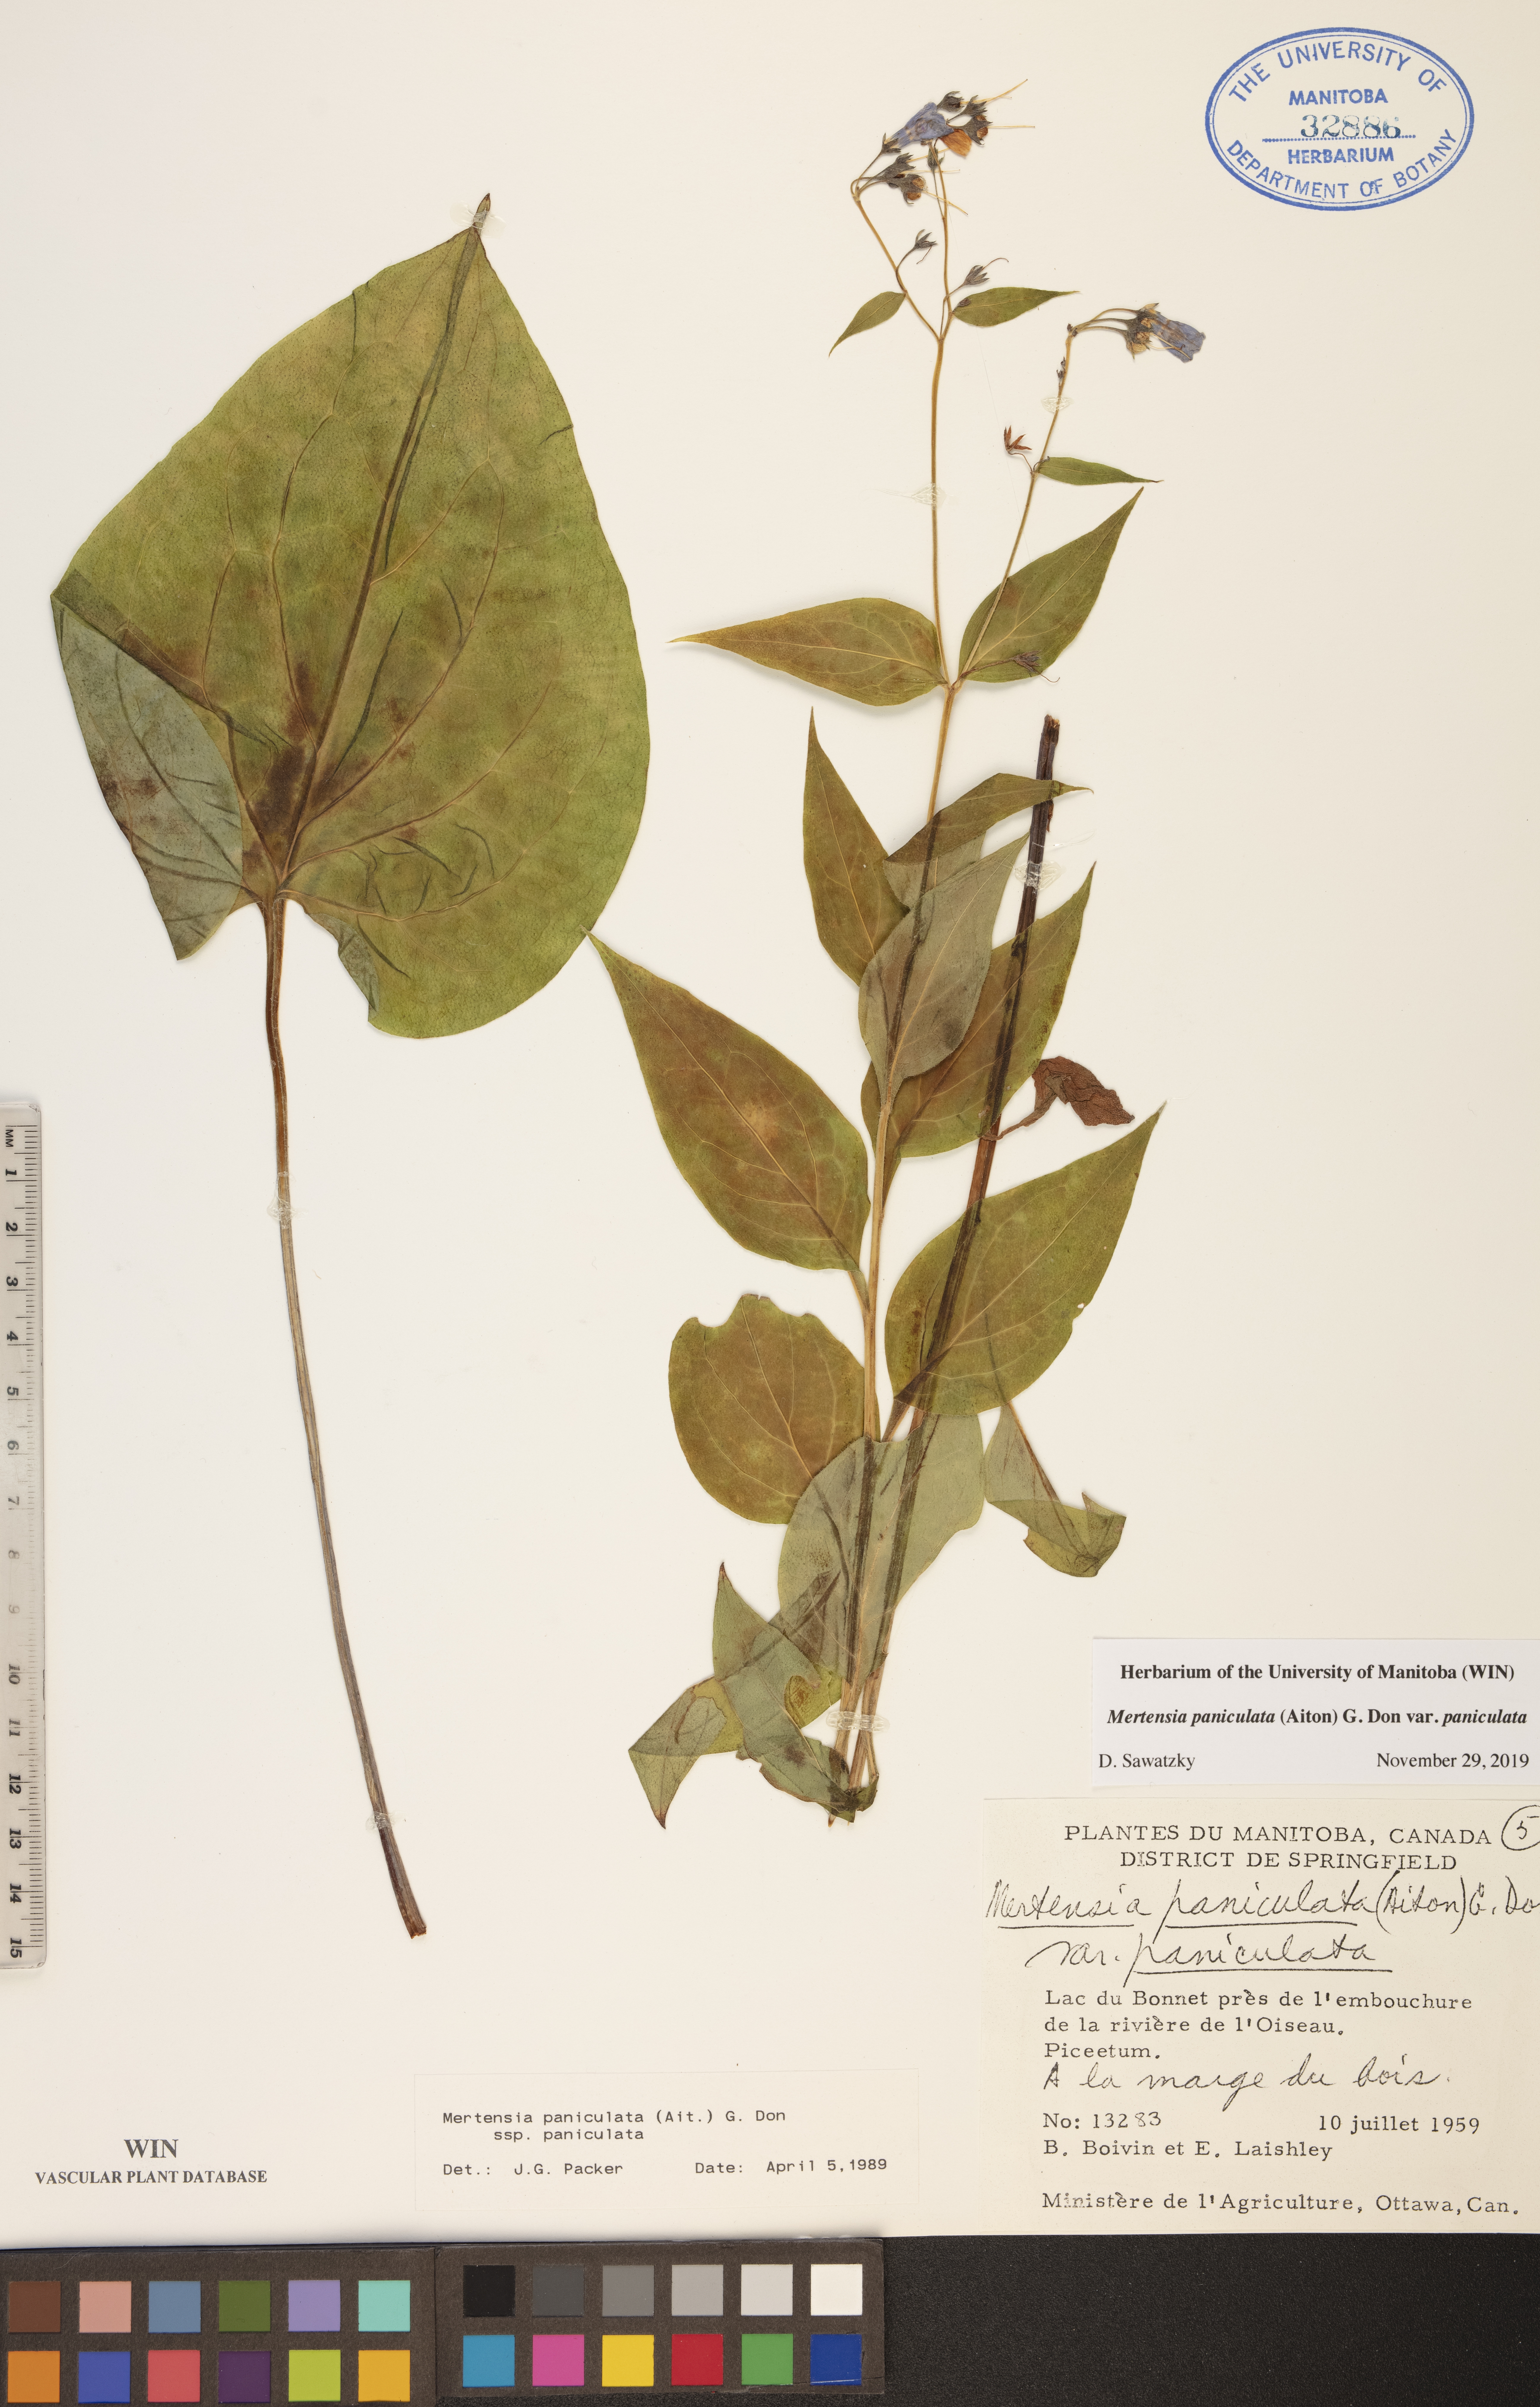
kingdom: Plantae
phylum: Tracheophyta
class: Magnoliopsida
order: Boraginales
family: Boraginaceae
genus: Mertensia
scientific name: Mertensia paniculata
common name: Panicled bluebells
